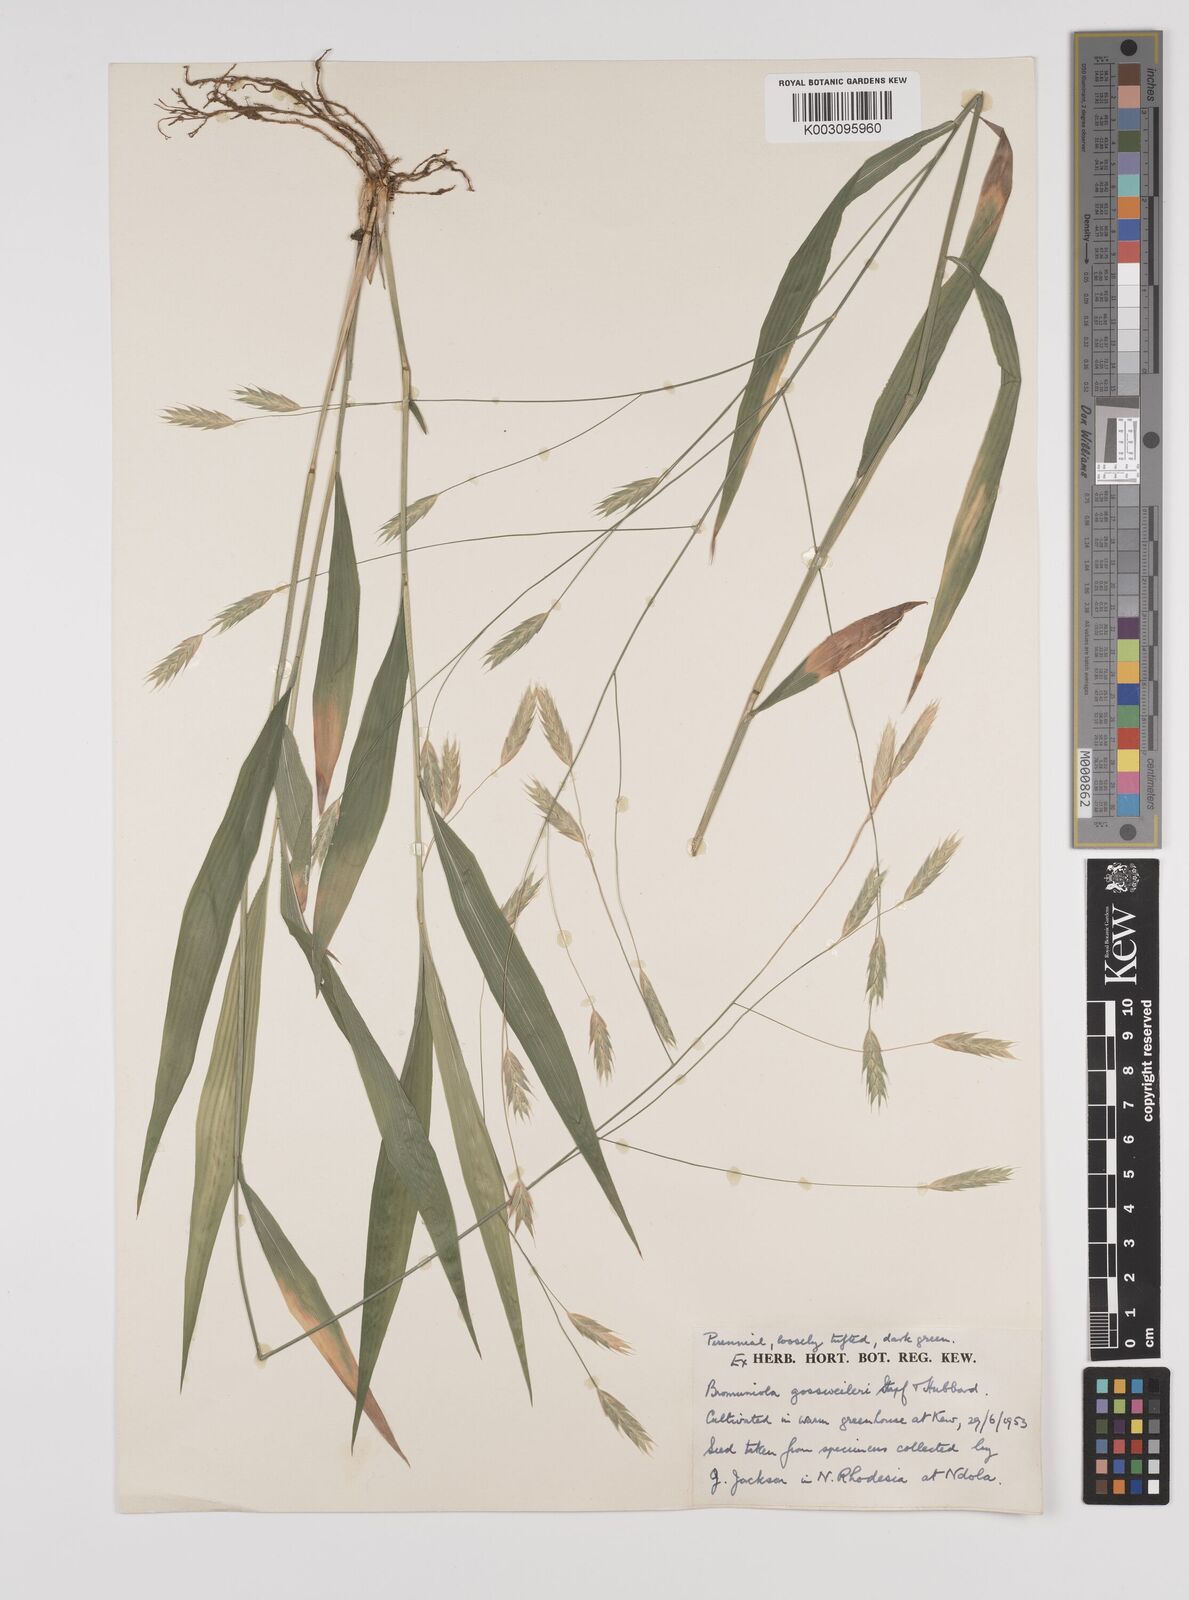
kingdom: Plantae
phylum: Tracheophyta
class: Liliopsida
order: Poales
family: Poaceae
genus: Bromuniola
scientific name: Bromuniola gossweileri
